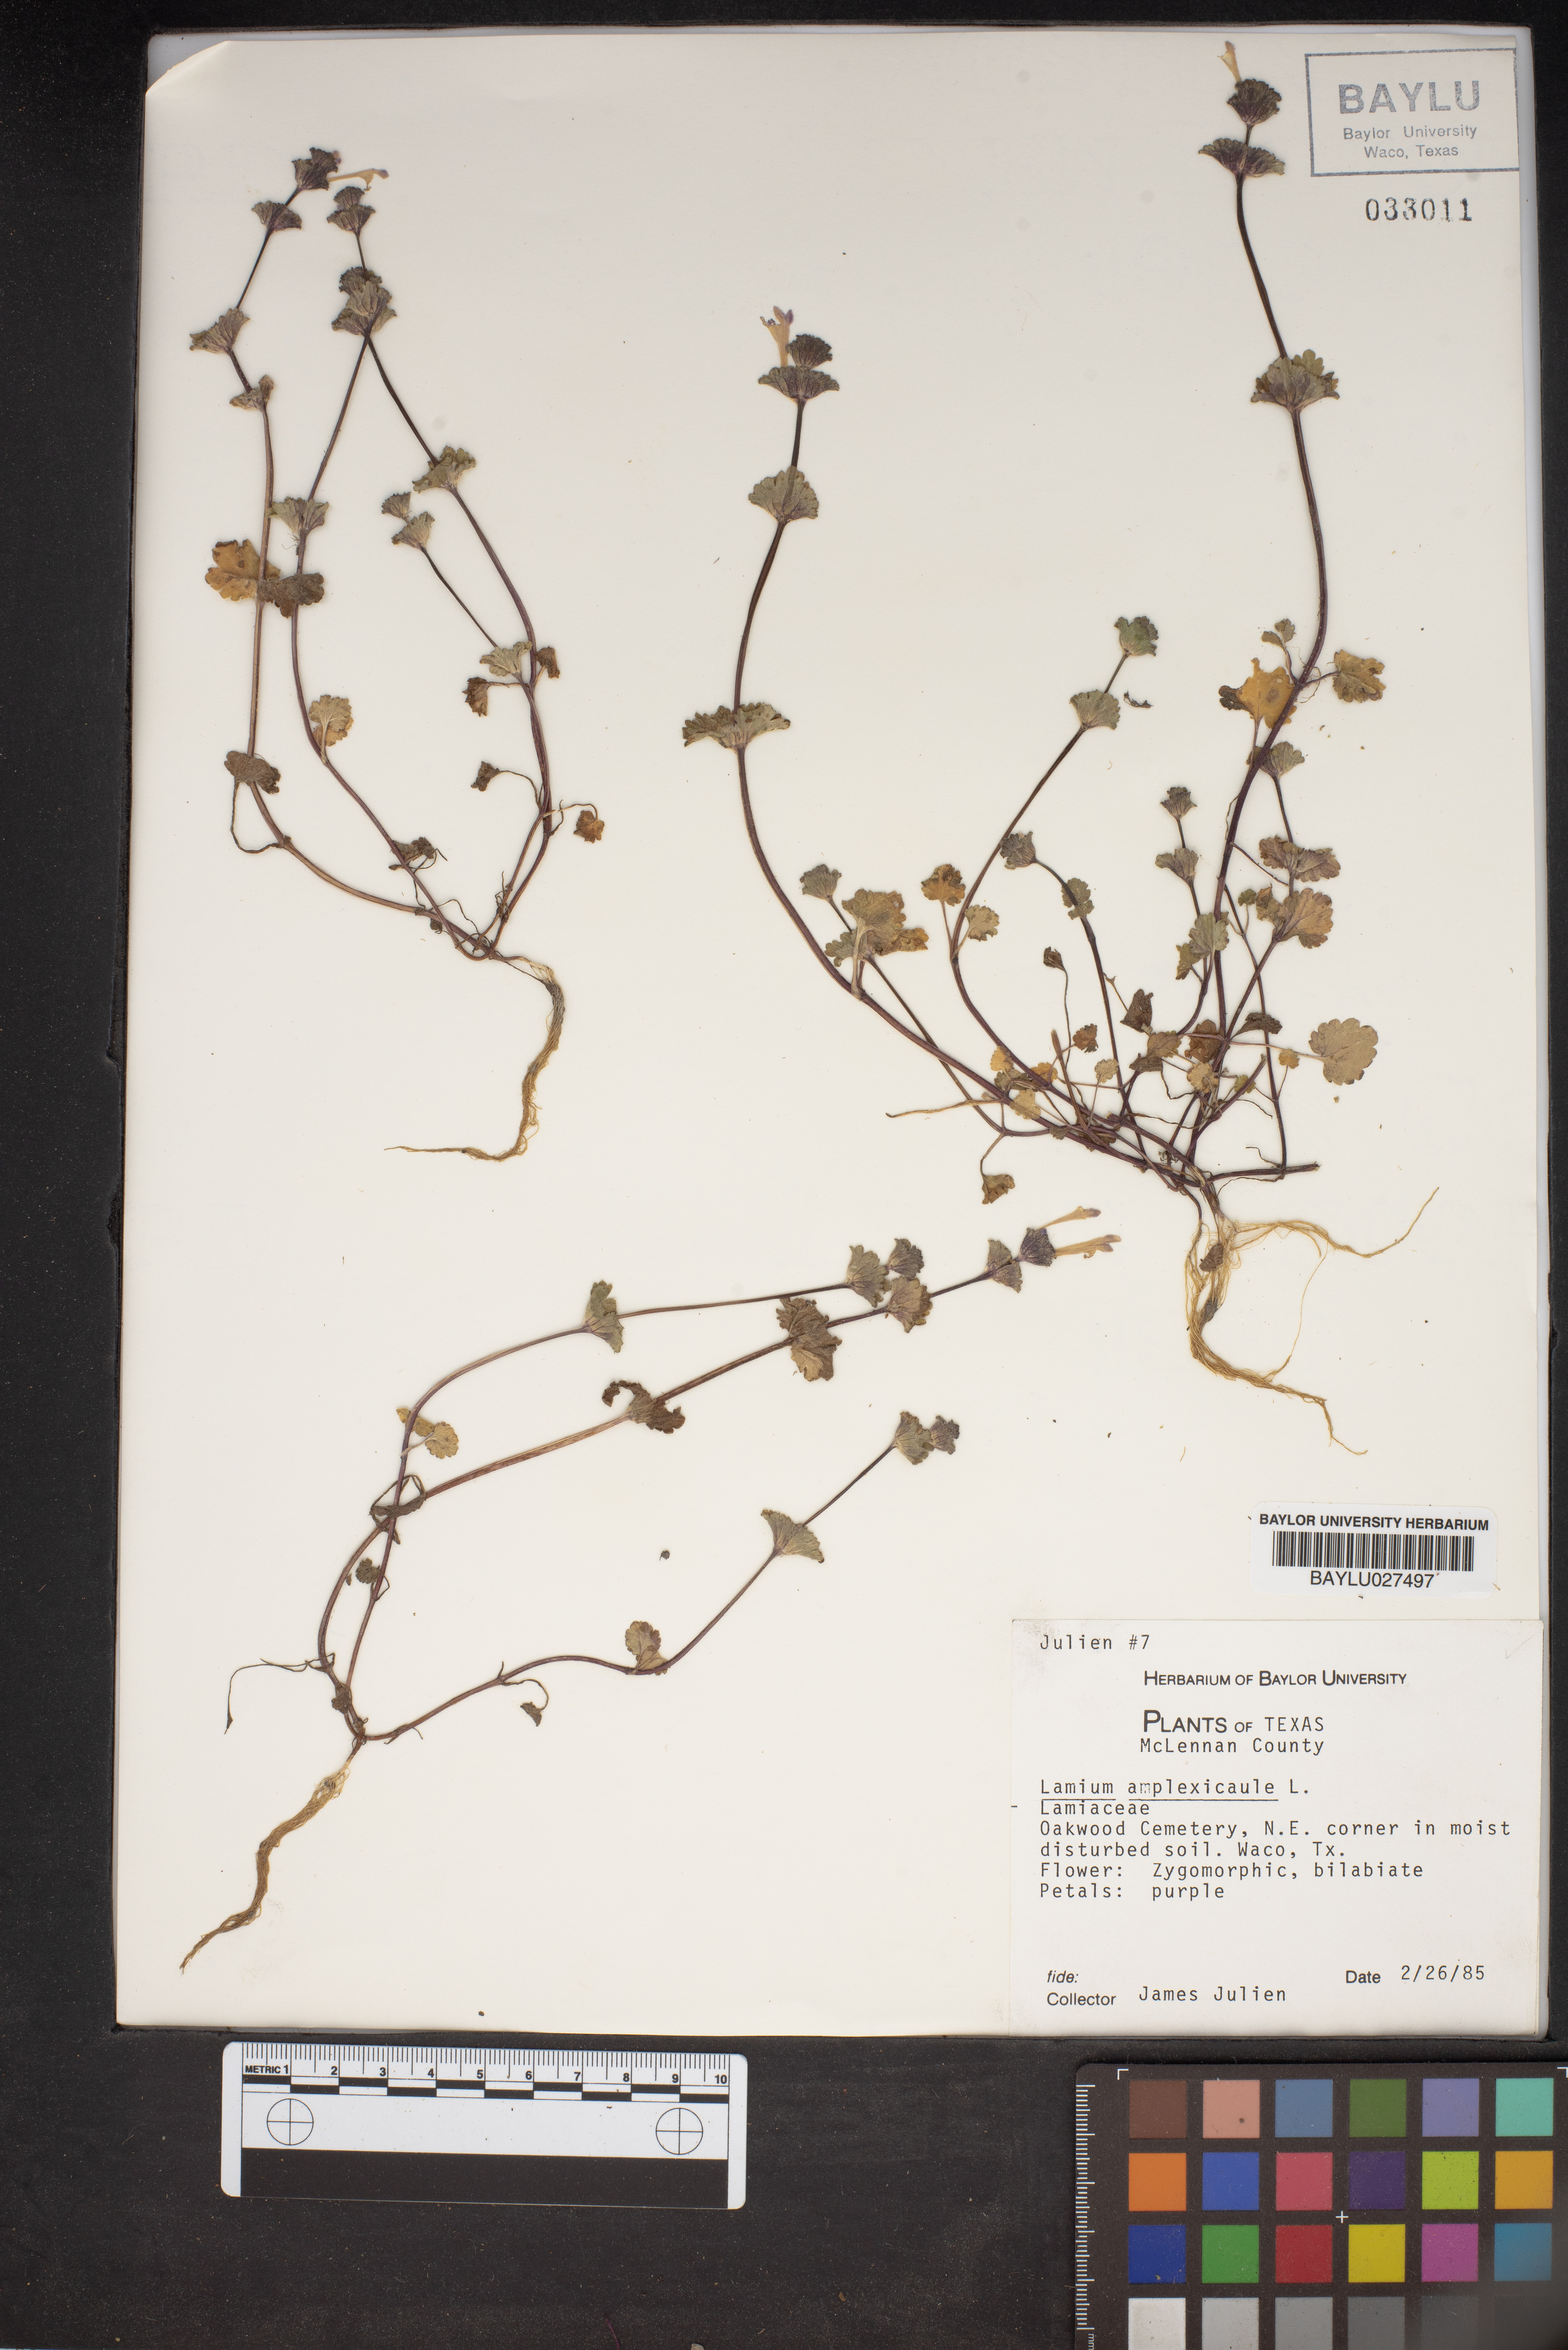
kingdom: Plantae
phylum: Tracheophyta
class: Magnoliopsida
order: Lamiales
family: Lamiaceae
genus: Lamium
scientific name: Lamium amplexicaule
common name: Henbit dead-nettle
